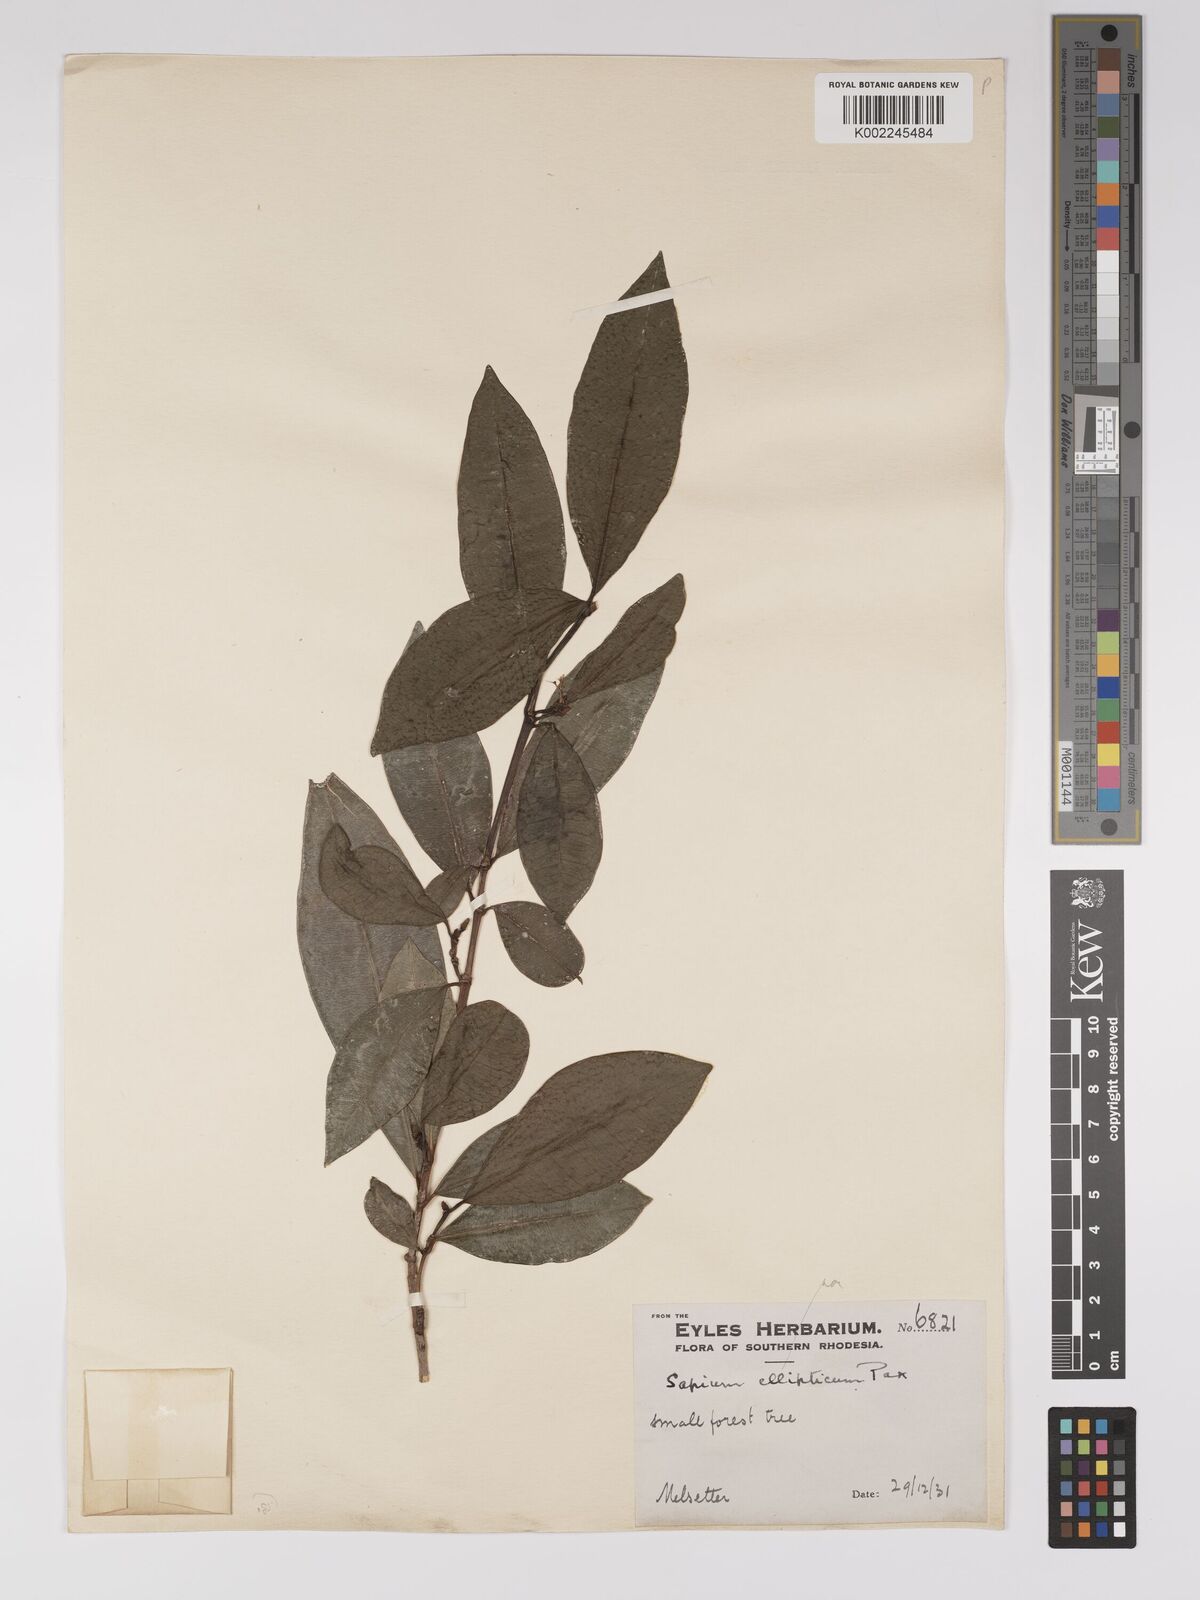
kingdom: Plantae
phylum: Tracheophyta
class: Magnoliopsida
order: Malpighiales
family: Euphorbiaceae
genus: Excoecaria
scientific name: Excoecaria madagascariensis
